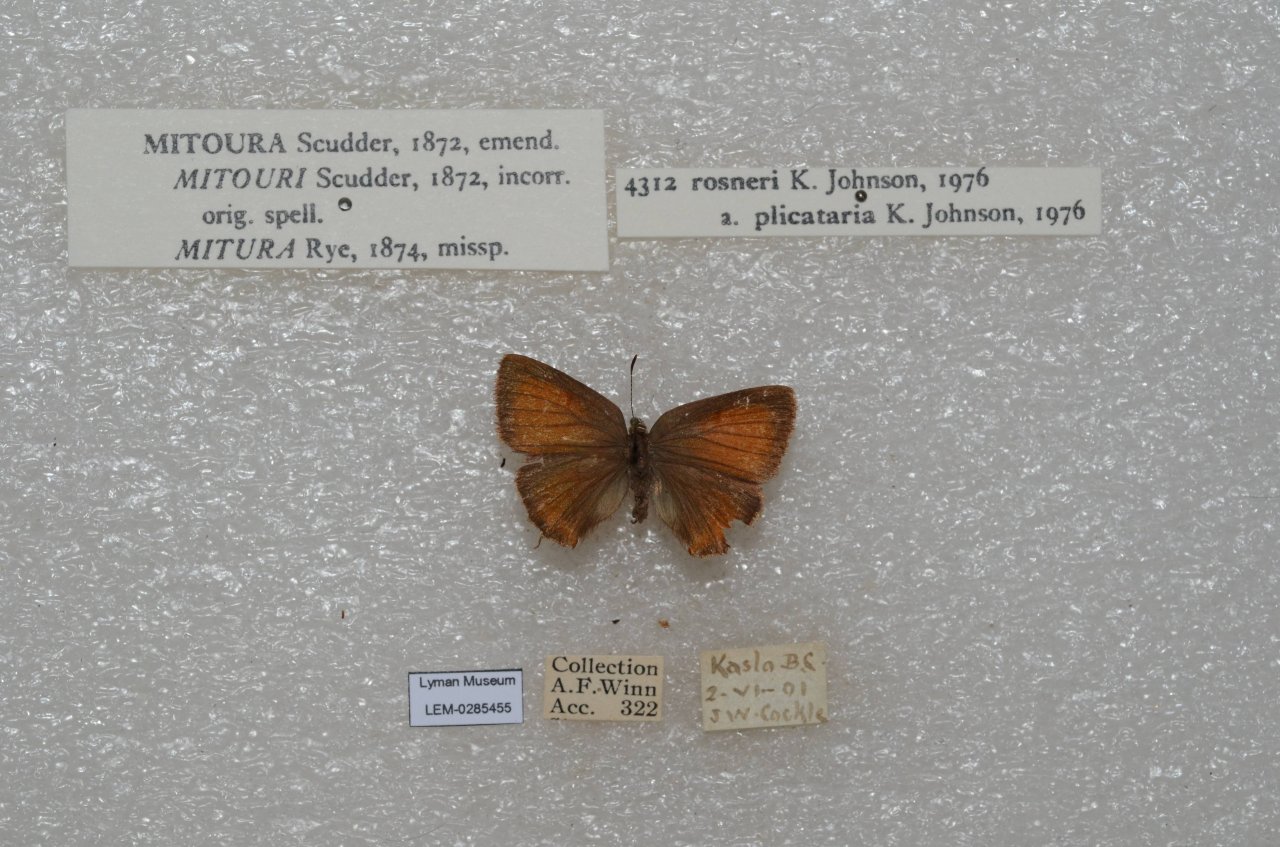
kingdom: Animalia
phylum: Arthropoda
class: Insecta
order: Lepidoptera
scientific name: Lepidoptera
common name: Butterflies
